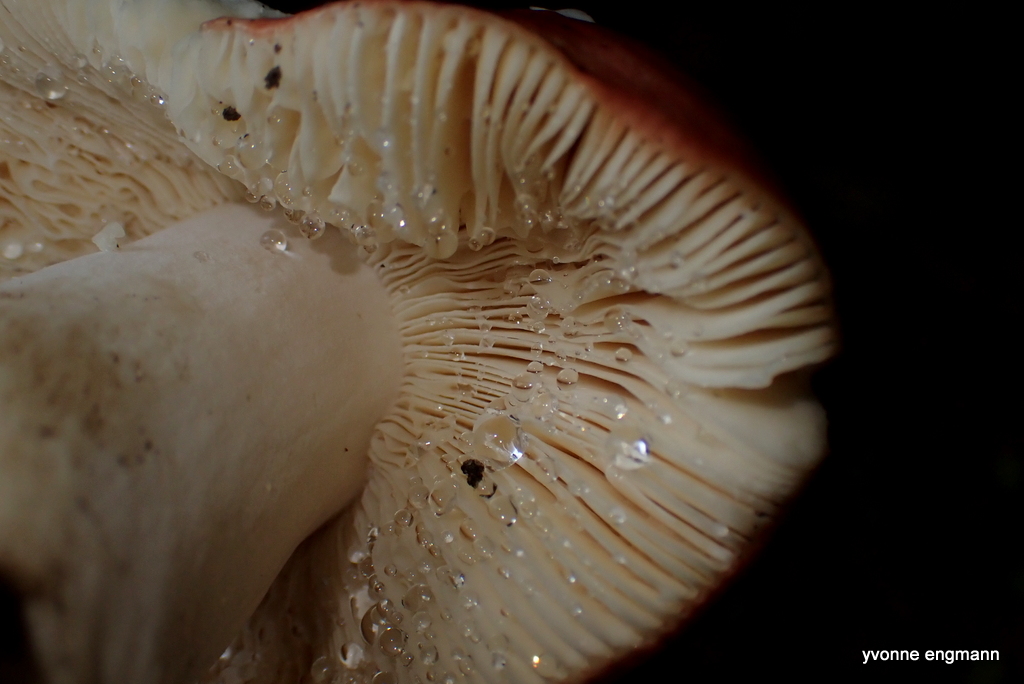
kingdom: Fungi
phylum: Basidiomycota
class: Agaricomycetes
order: Russulales
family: Russulaceae
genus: Russula
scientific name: Russula melliolens
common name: honning-skørhat
